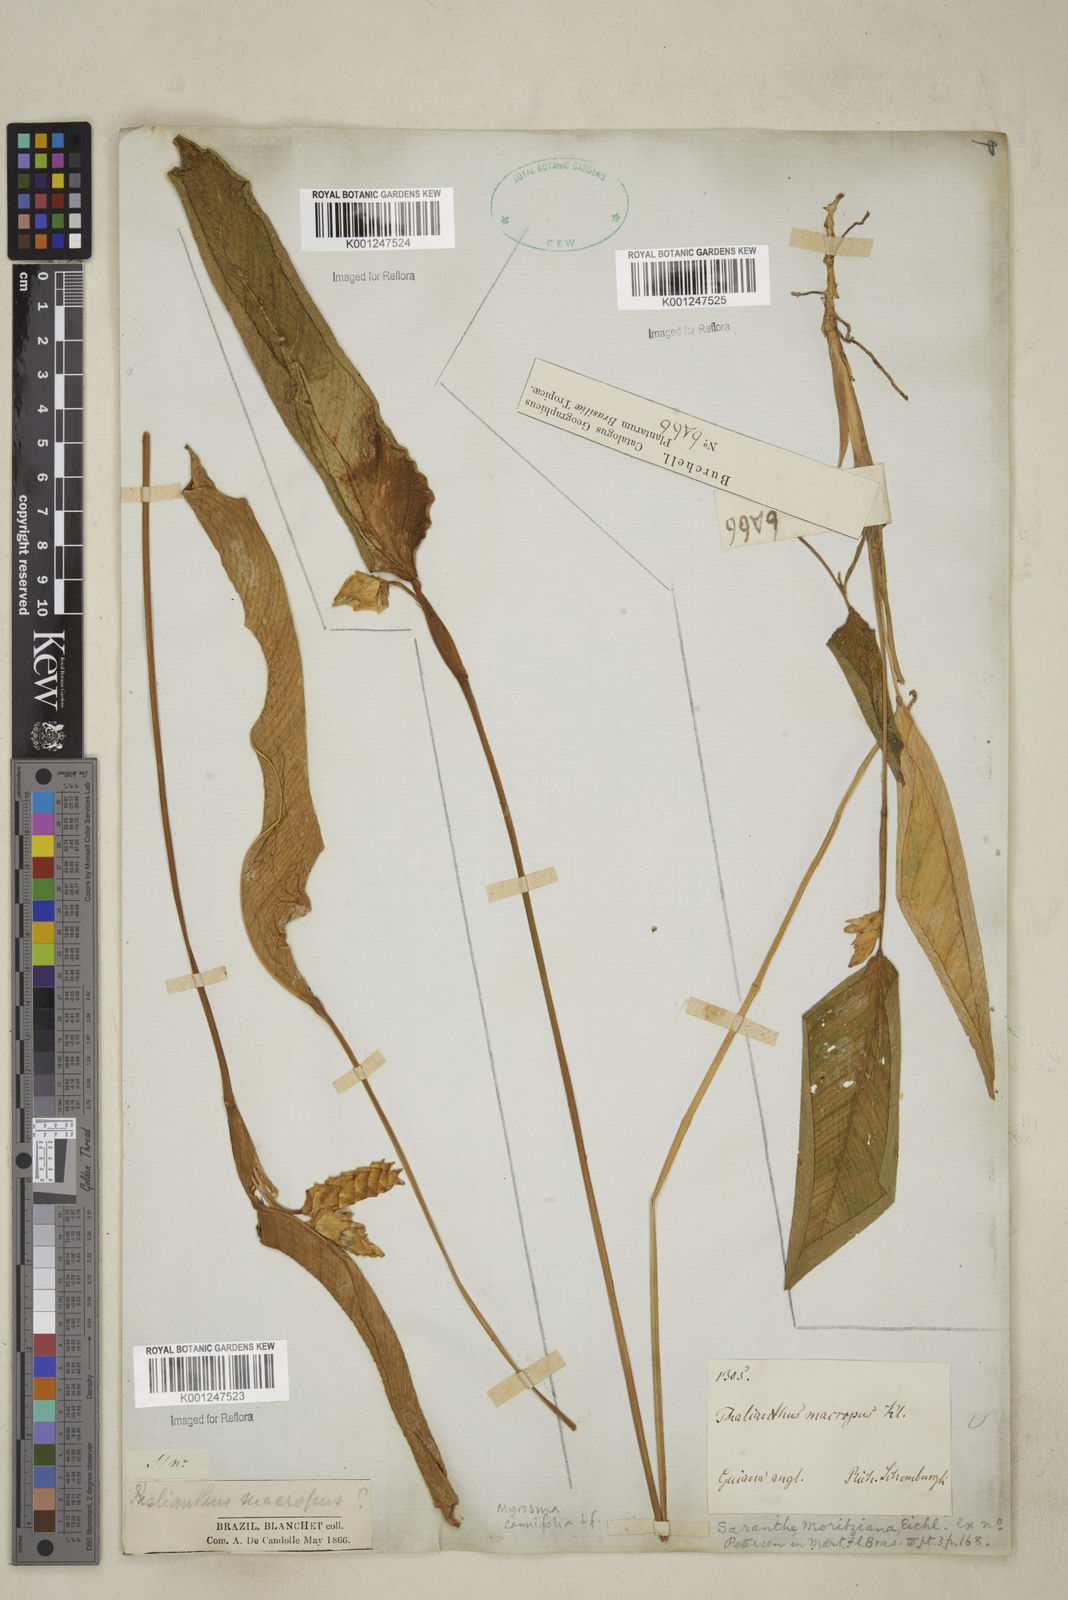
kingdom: Plantae
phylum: Tracheophyta
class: Liliopsida
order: Zingiberales
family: Marantaceae
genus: Myrosma
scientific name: Myrosma cannifolia
